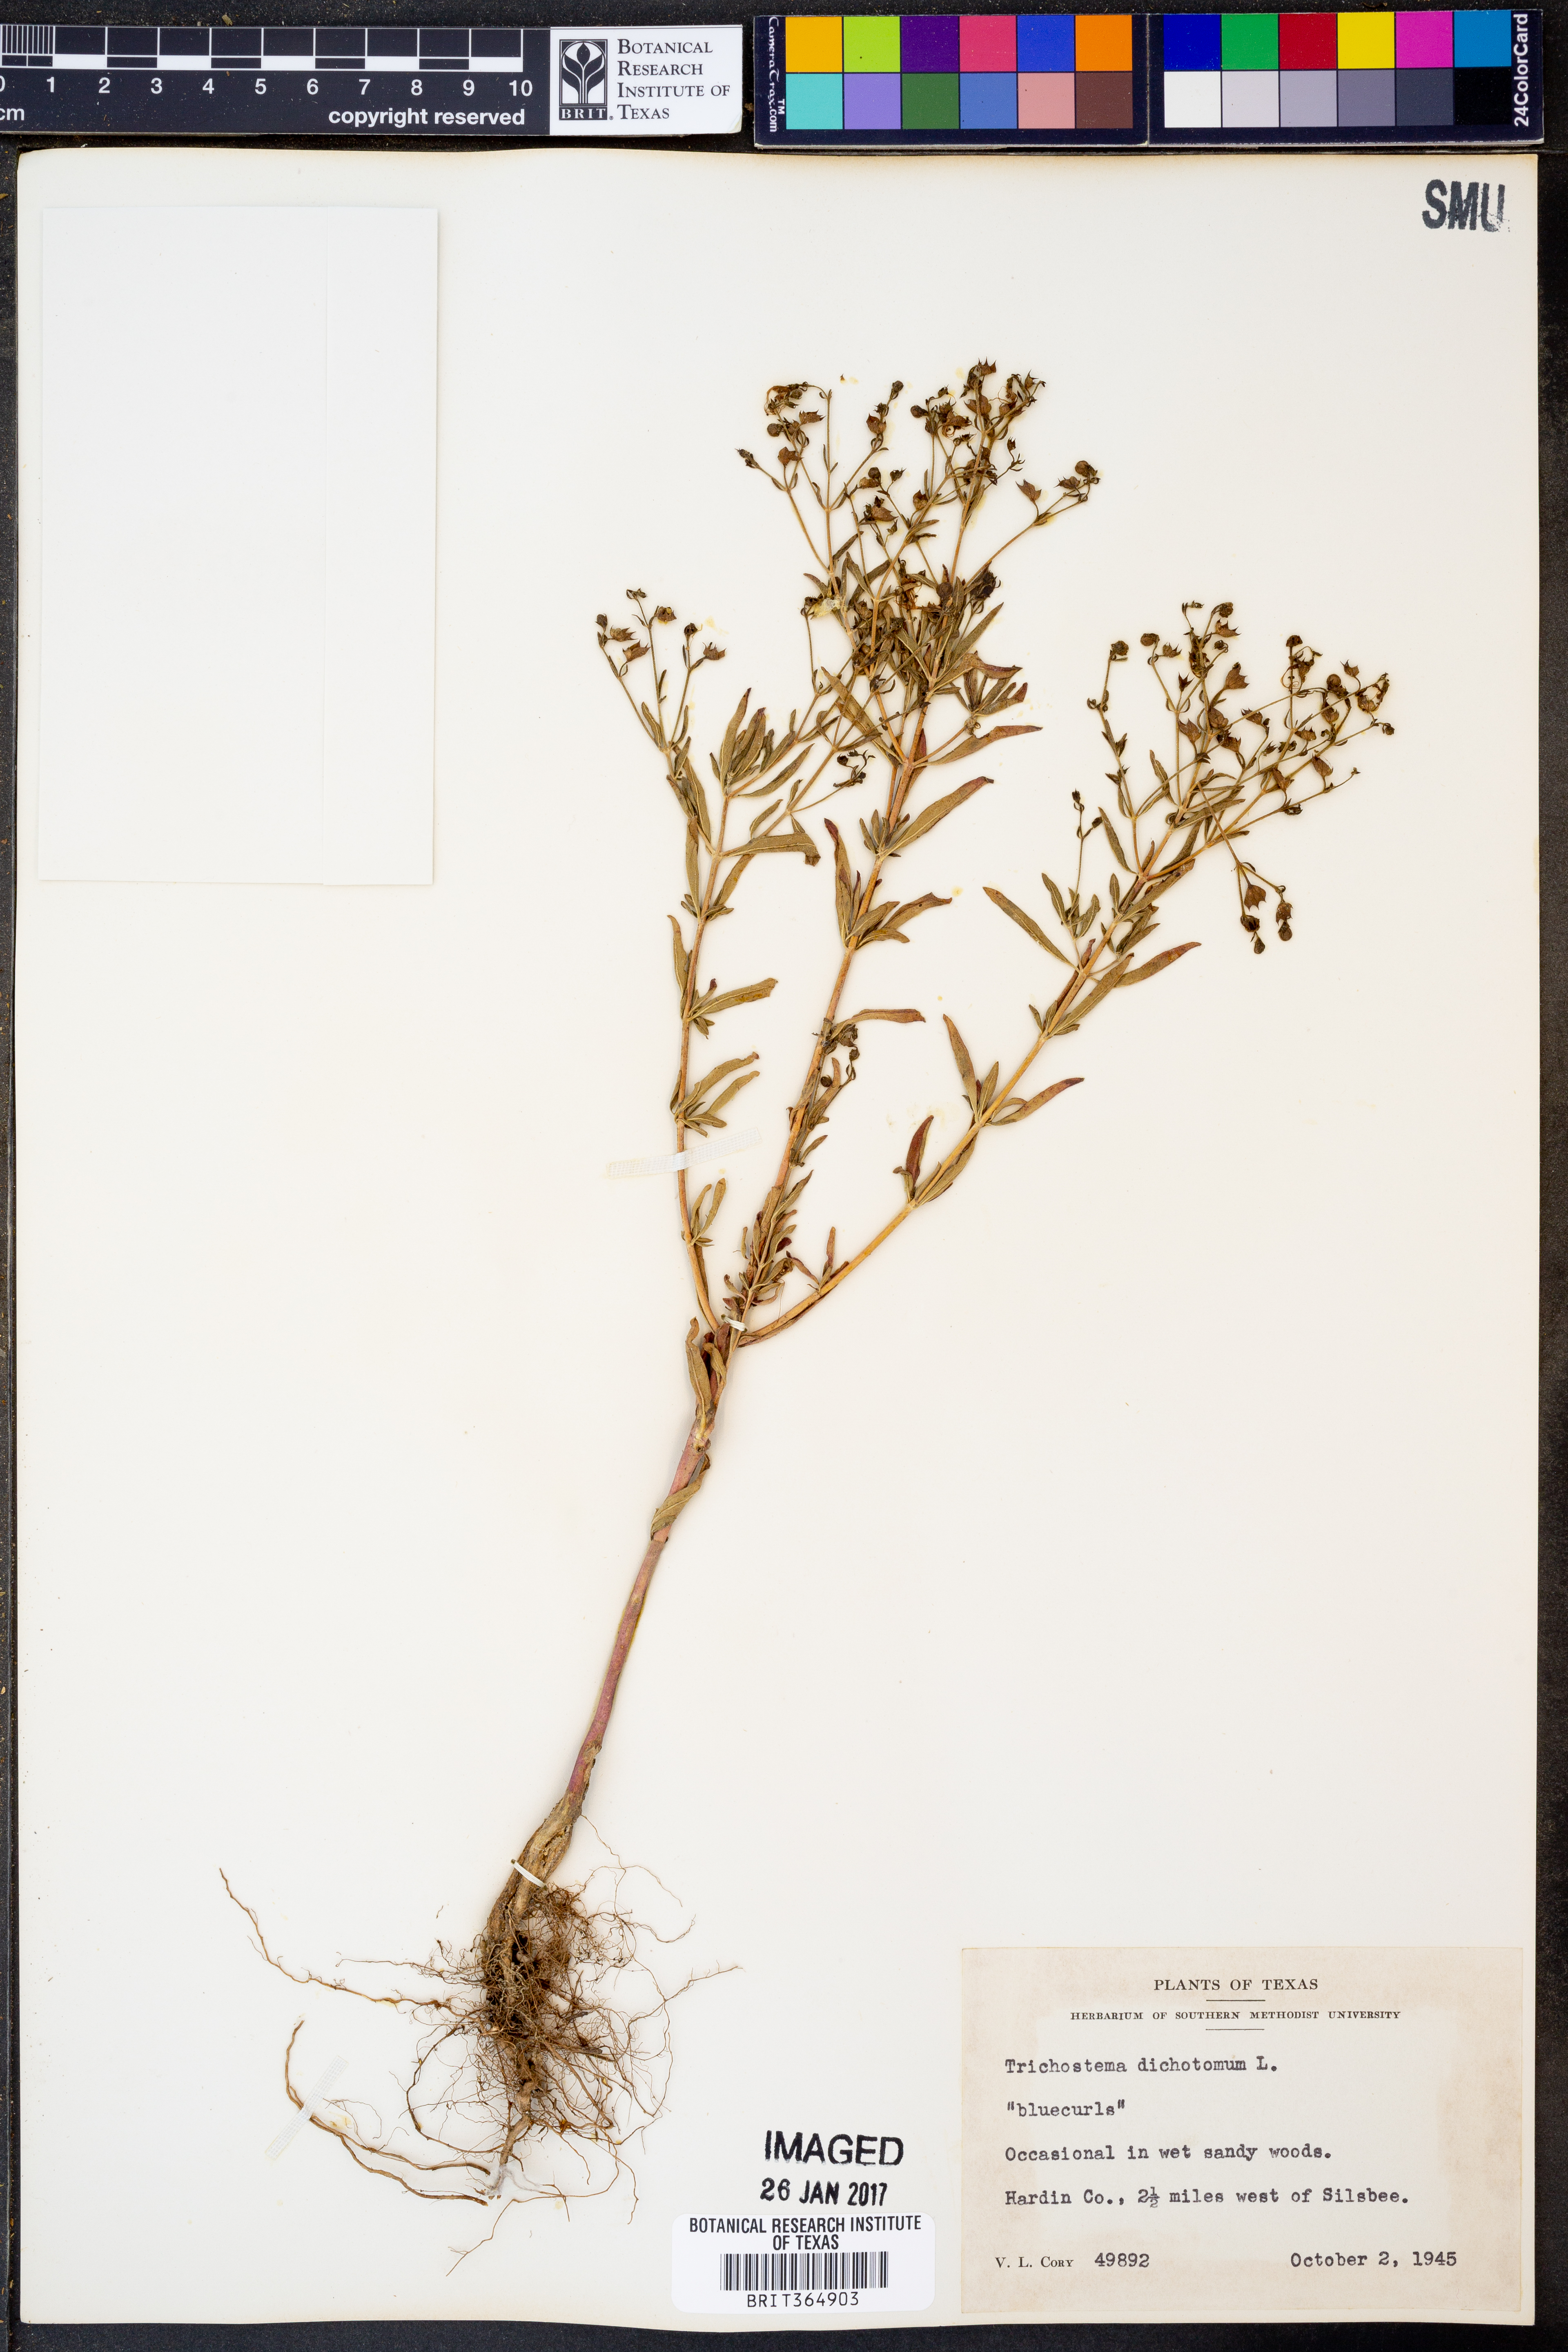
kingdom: Plantae
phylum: Tracheophyta
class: Magnoliopsida
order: Lamiales
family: Lamiaceae
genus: Trichostema
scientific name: Trichostema dichotomum
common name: Bastard pennyroyal
